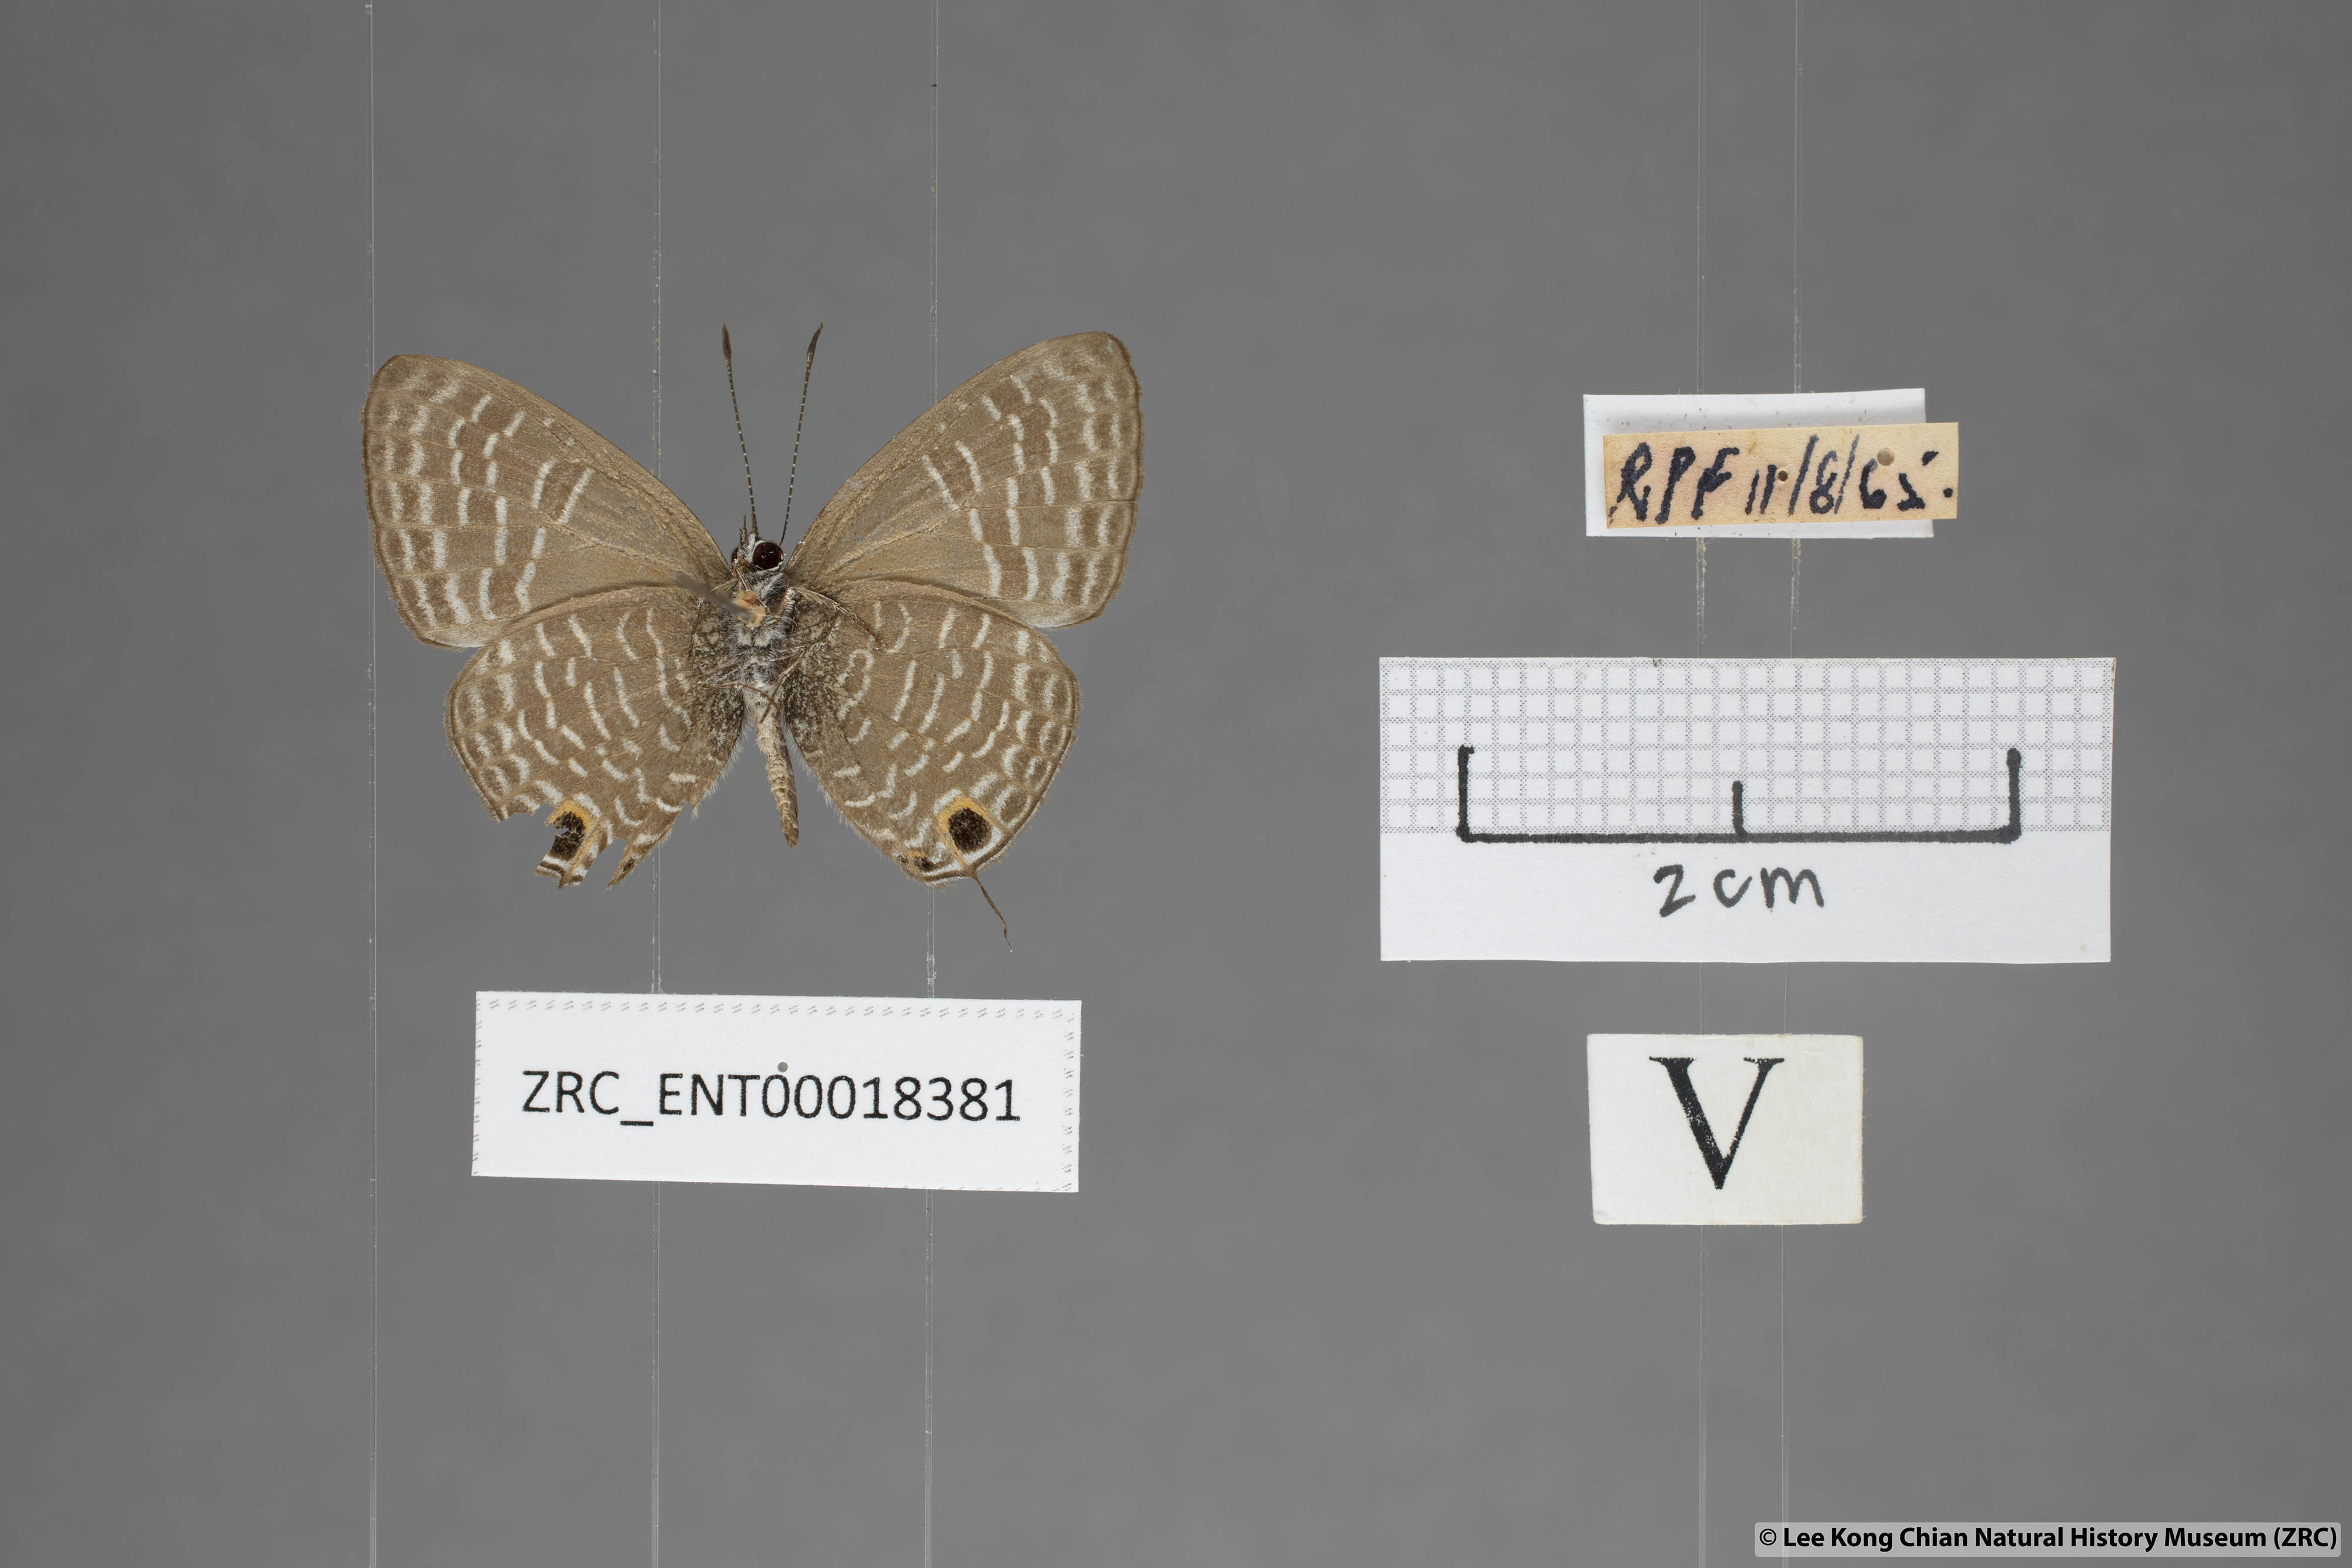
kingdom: Animalia
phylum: Arthropoda
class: Insecta
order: Lepidoptera
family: Lycaenidae
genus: Nacaduba
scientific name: Nacaduba kurava
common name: Transparent 6-line blue
